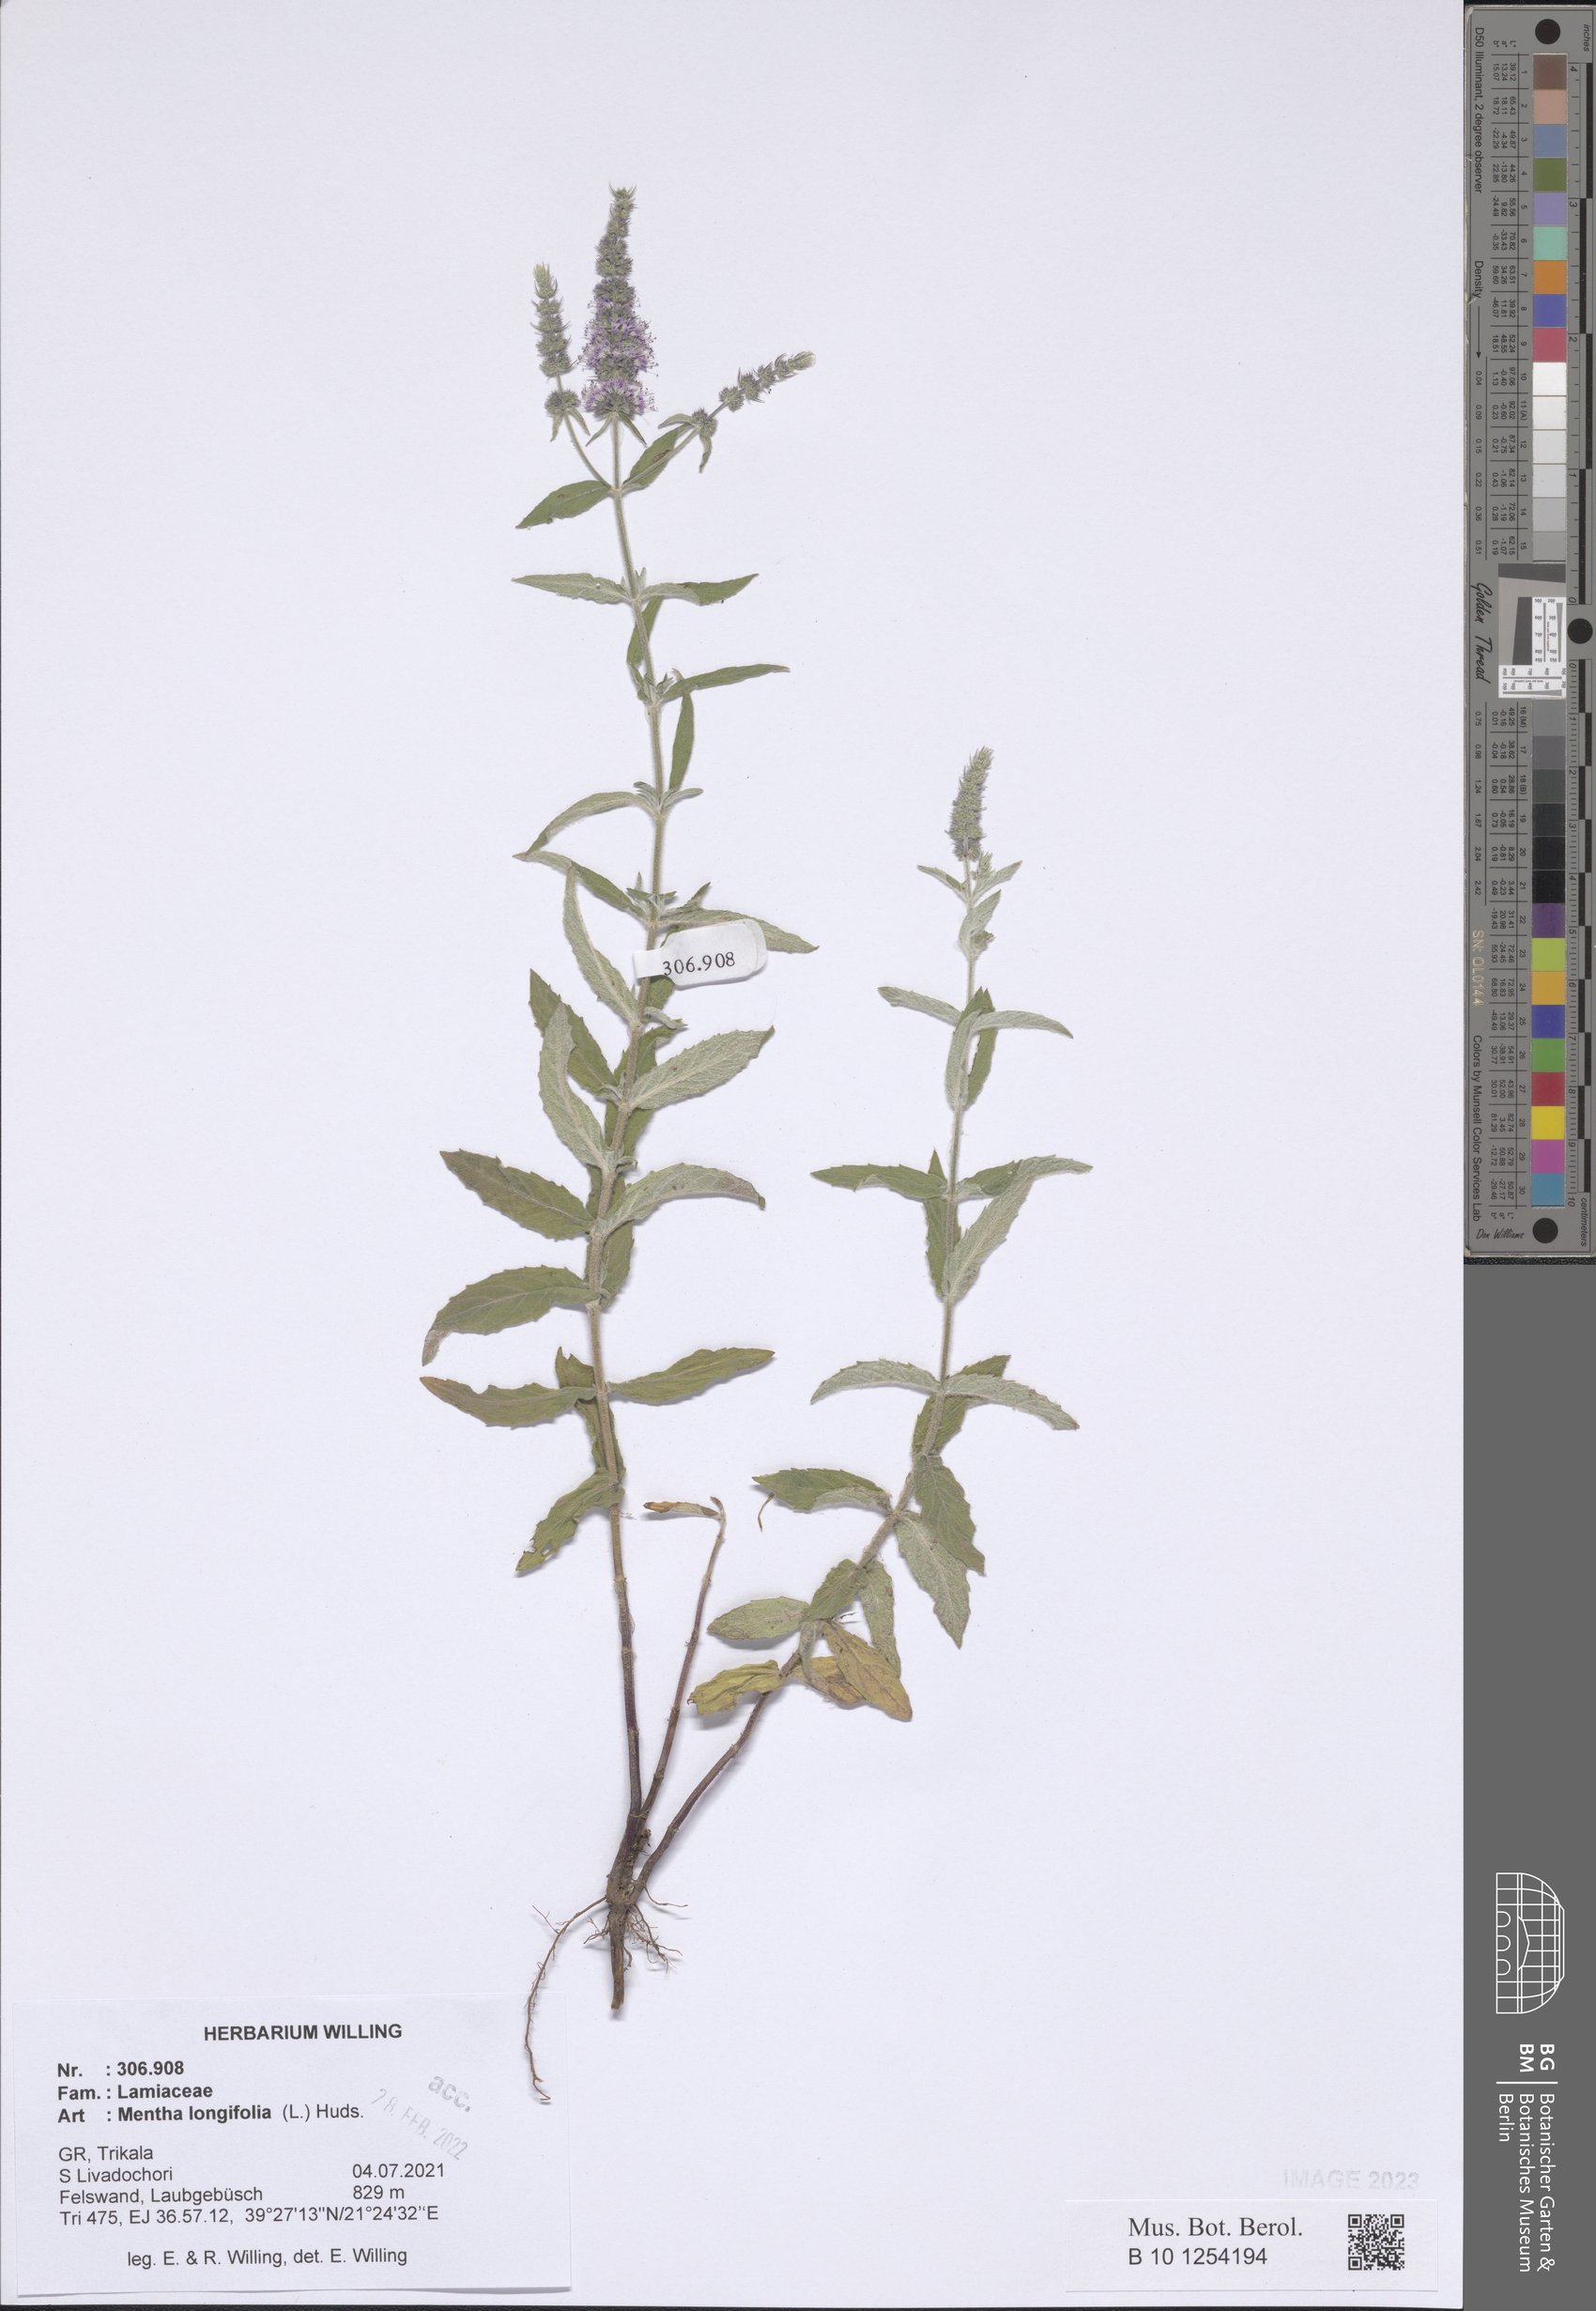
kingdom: Plantae
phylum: Tracheophyta
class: Magnoliopsida
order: Lamiales
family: Lamiaceae
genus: Mentha
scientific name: Mentha longifolia
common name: Horse mint
